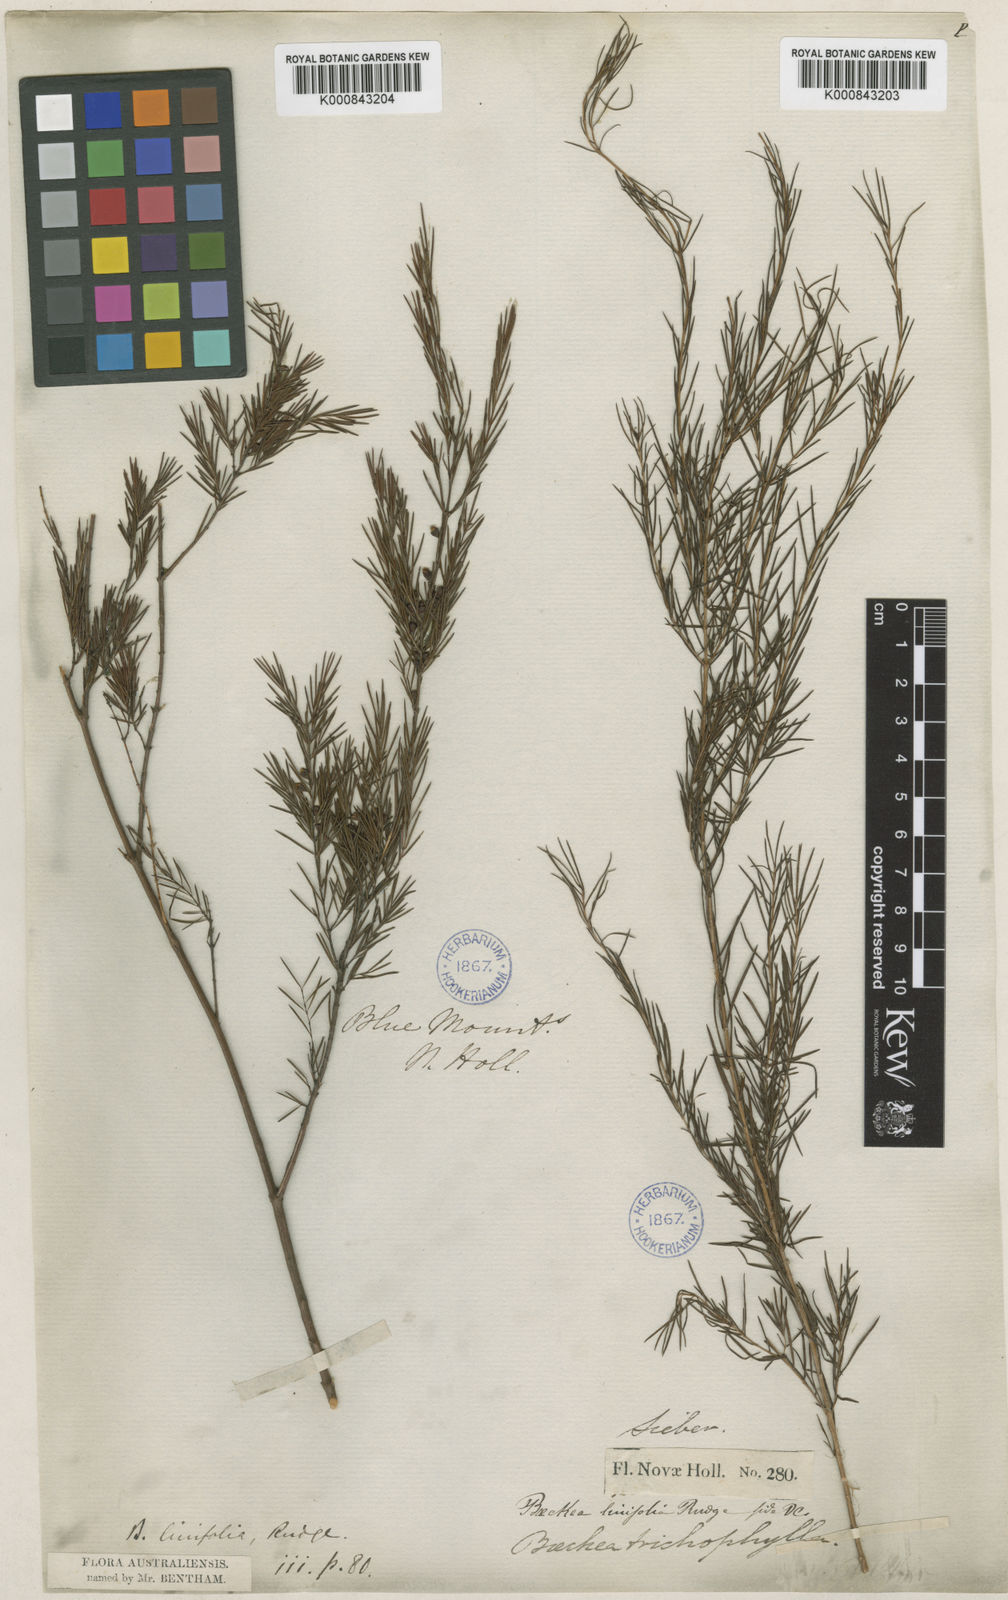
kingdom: Plantae
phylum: Tracheophyta
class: Magnoliopsida
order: Myrtales
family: Myrtaceae
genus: Baeckea
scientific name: Baeckea linifolia
